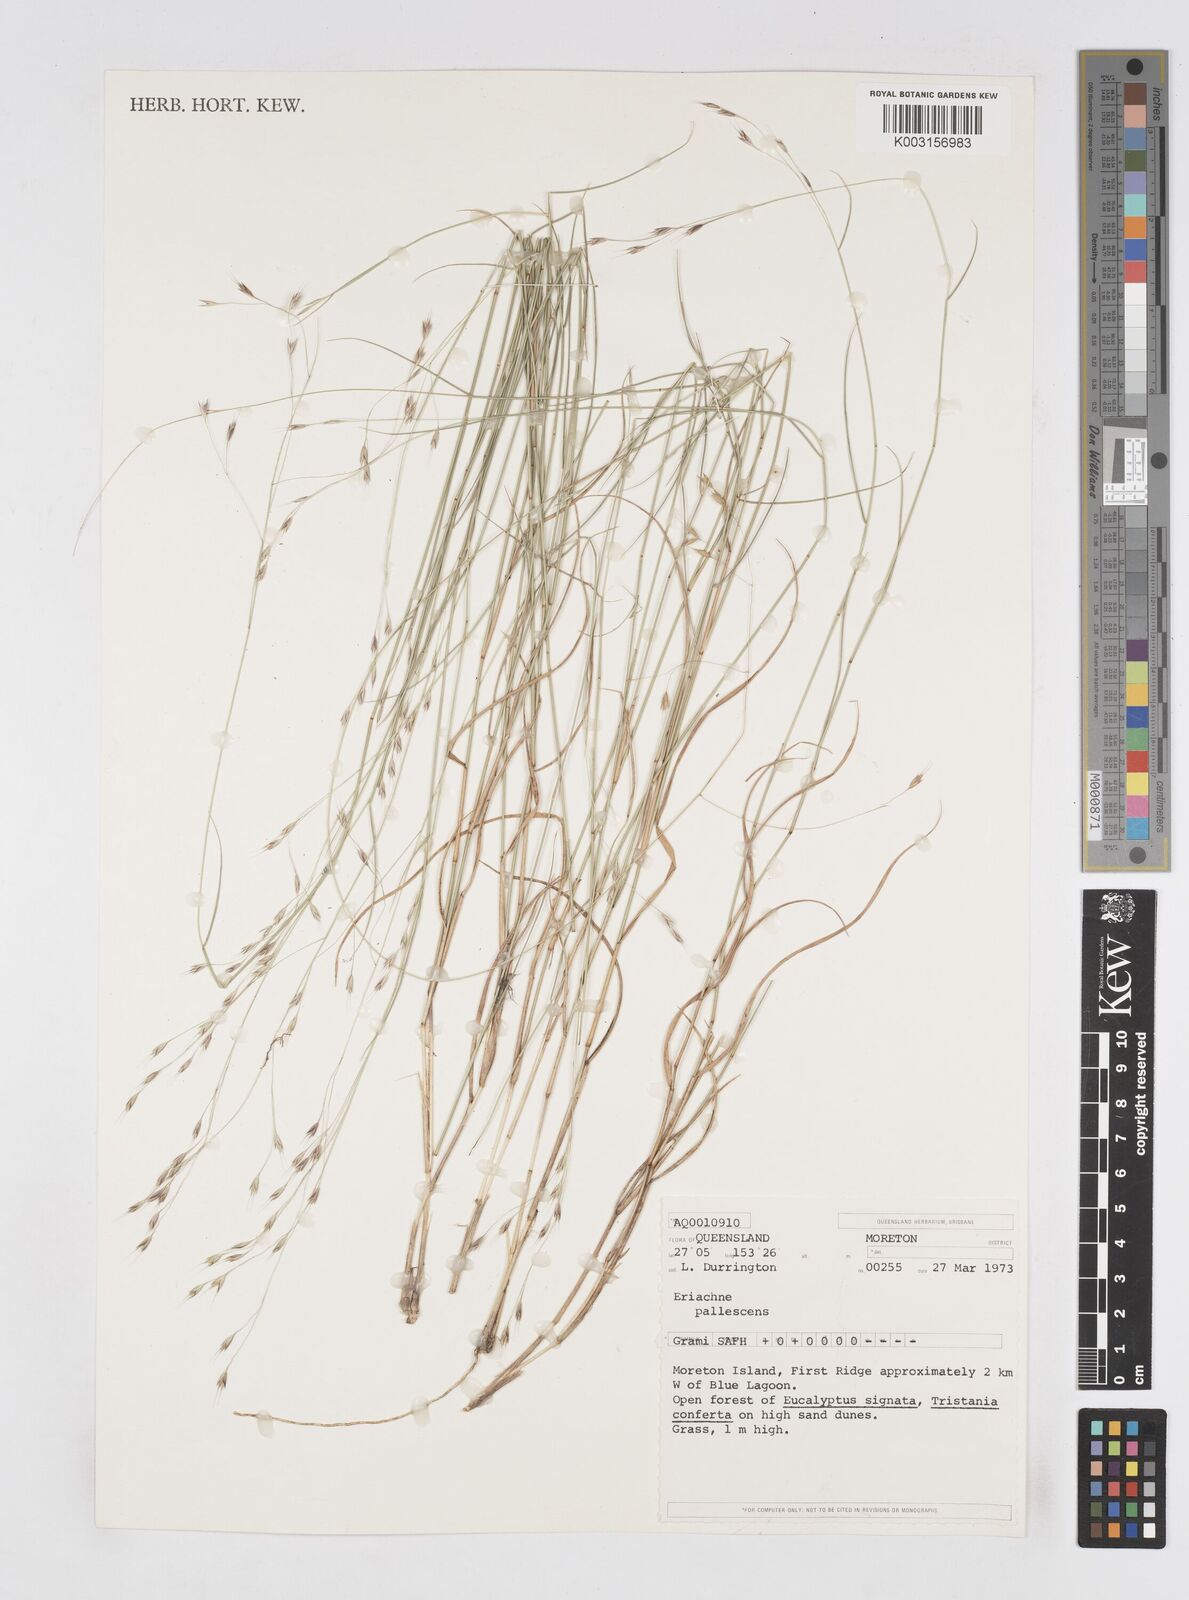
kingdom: Plantae
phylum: Tracheophyta
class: Liliopsida
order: Poales
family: Poaceae
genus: Eriachne
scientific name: Eriachne pallescens
